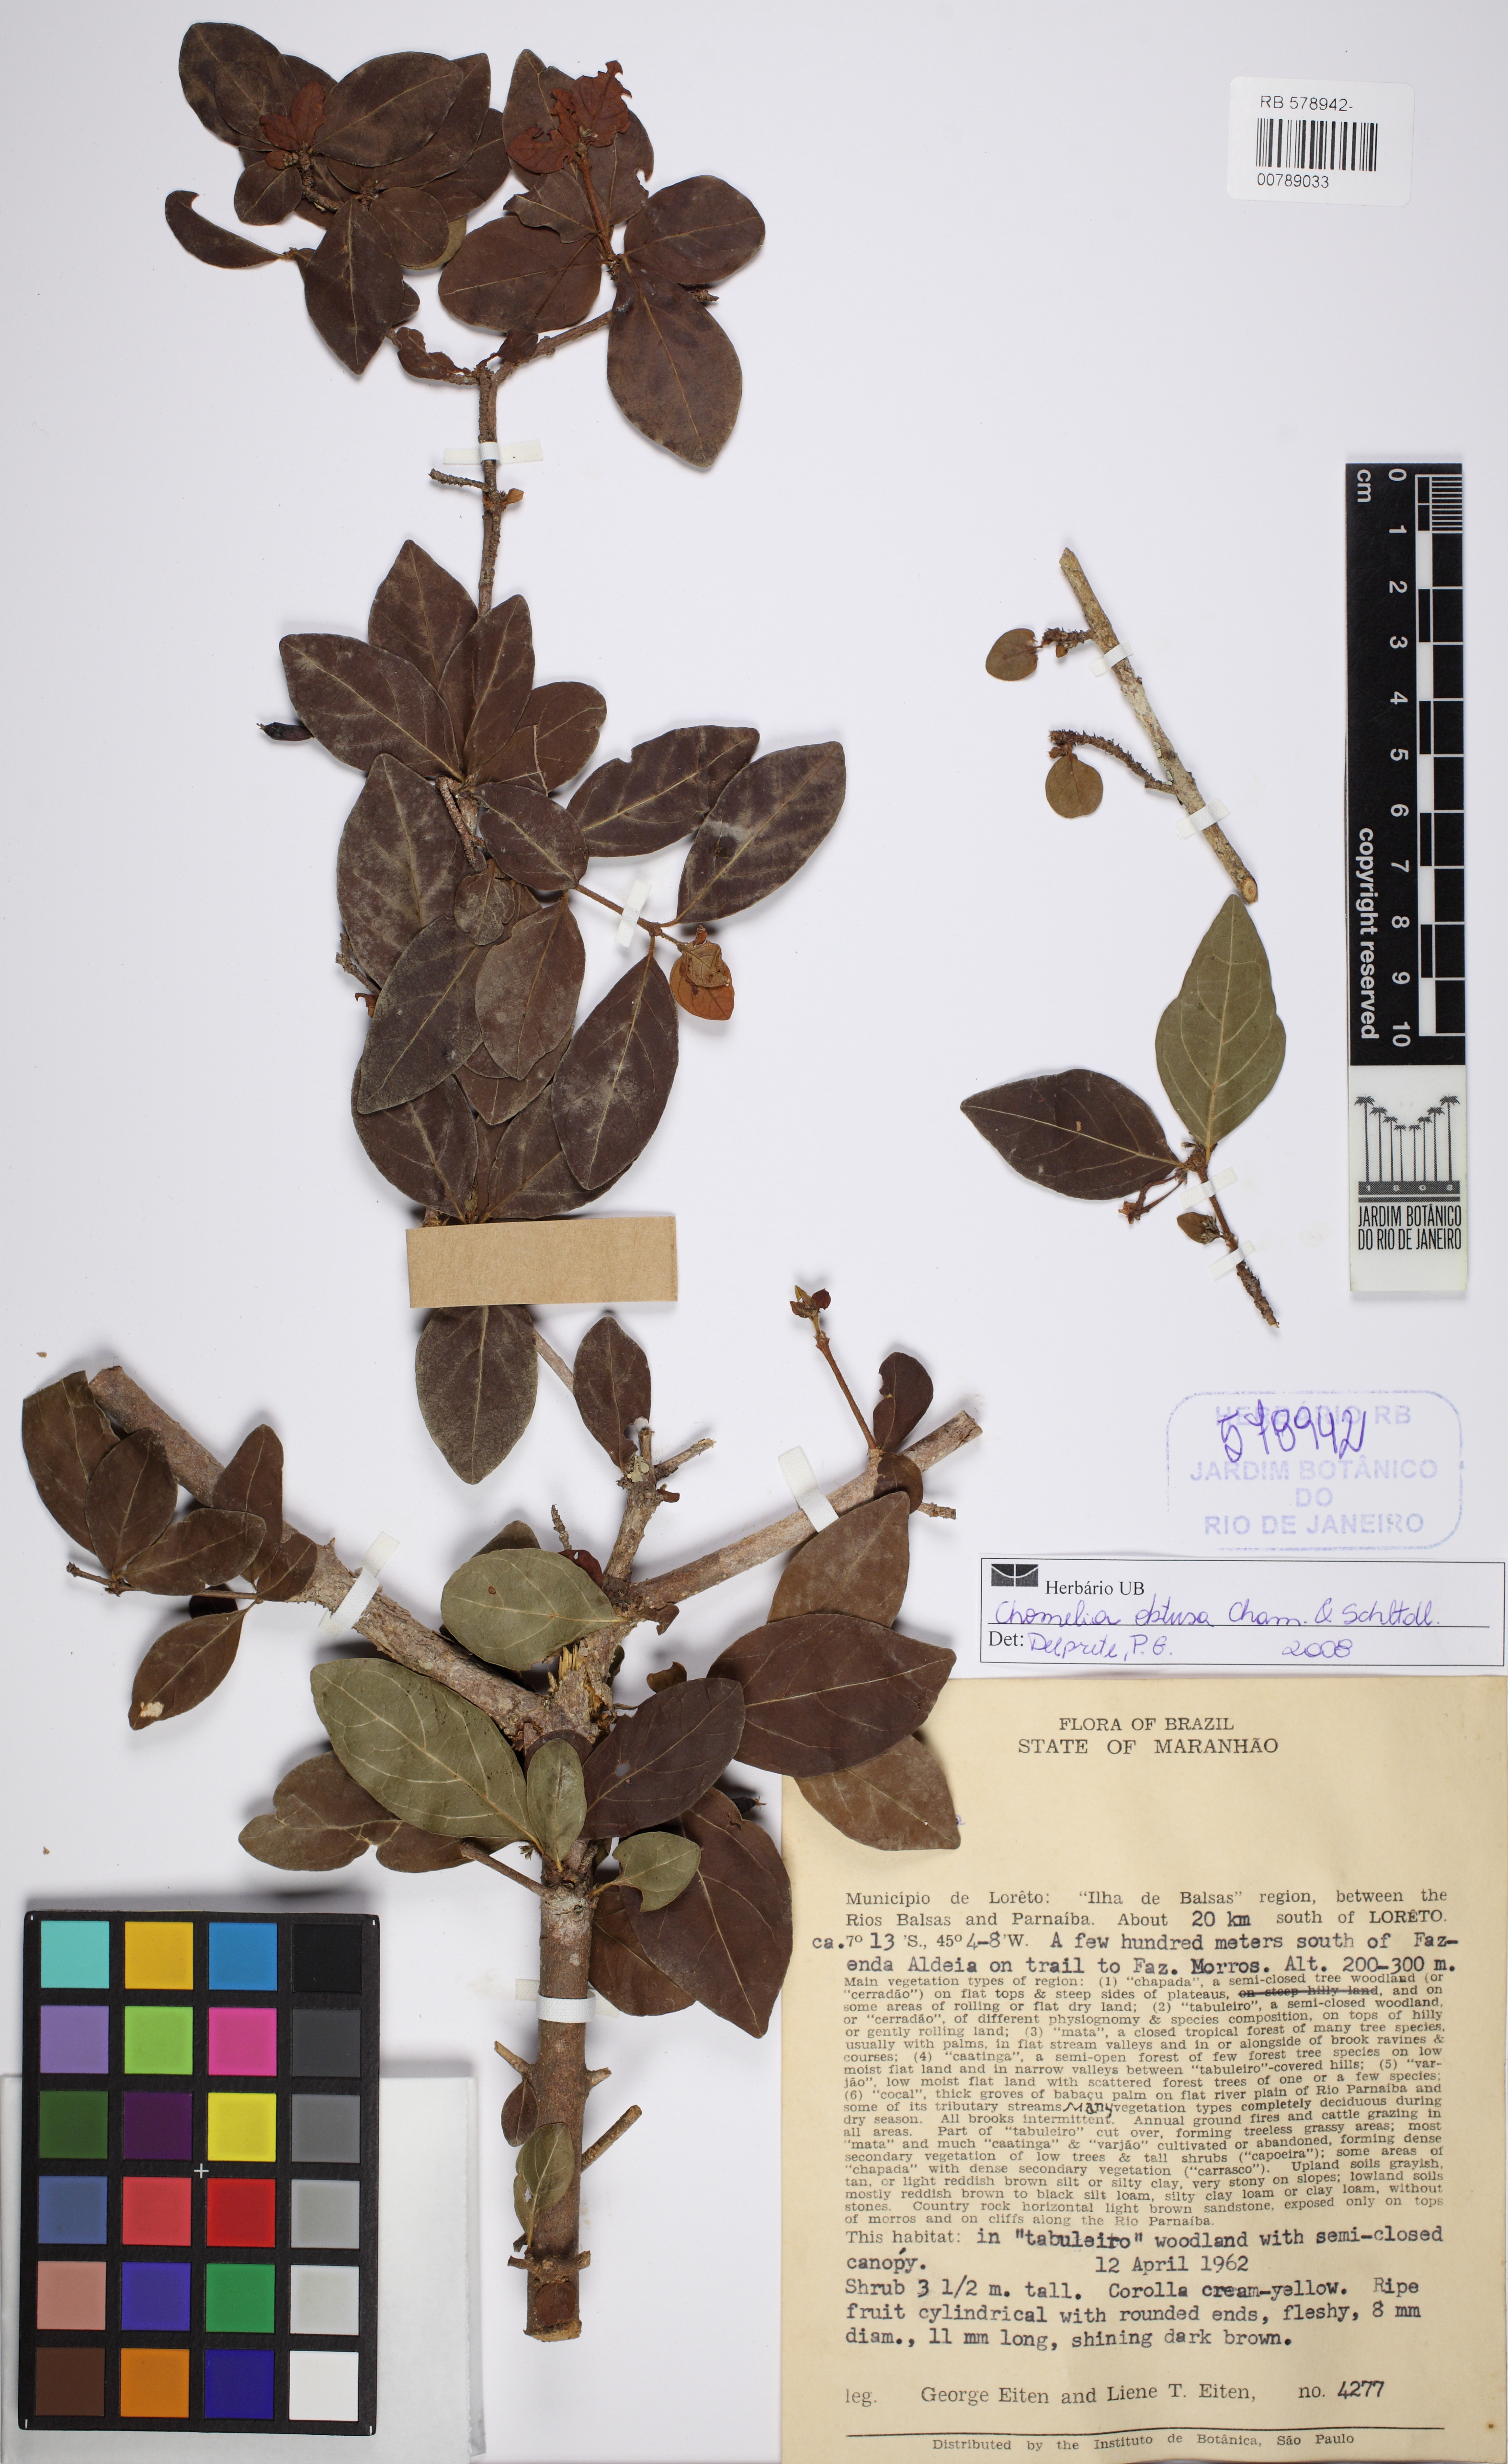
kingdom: Plantae
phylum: Tracheophyta
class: Magnoliopsida
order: Gentianales
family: Rubiaceae
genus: Chomelia
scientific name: Chomelia obtusa
